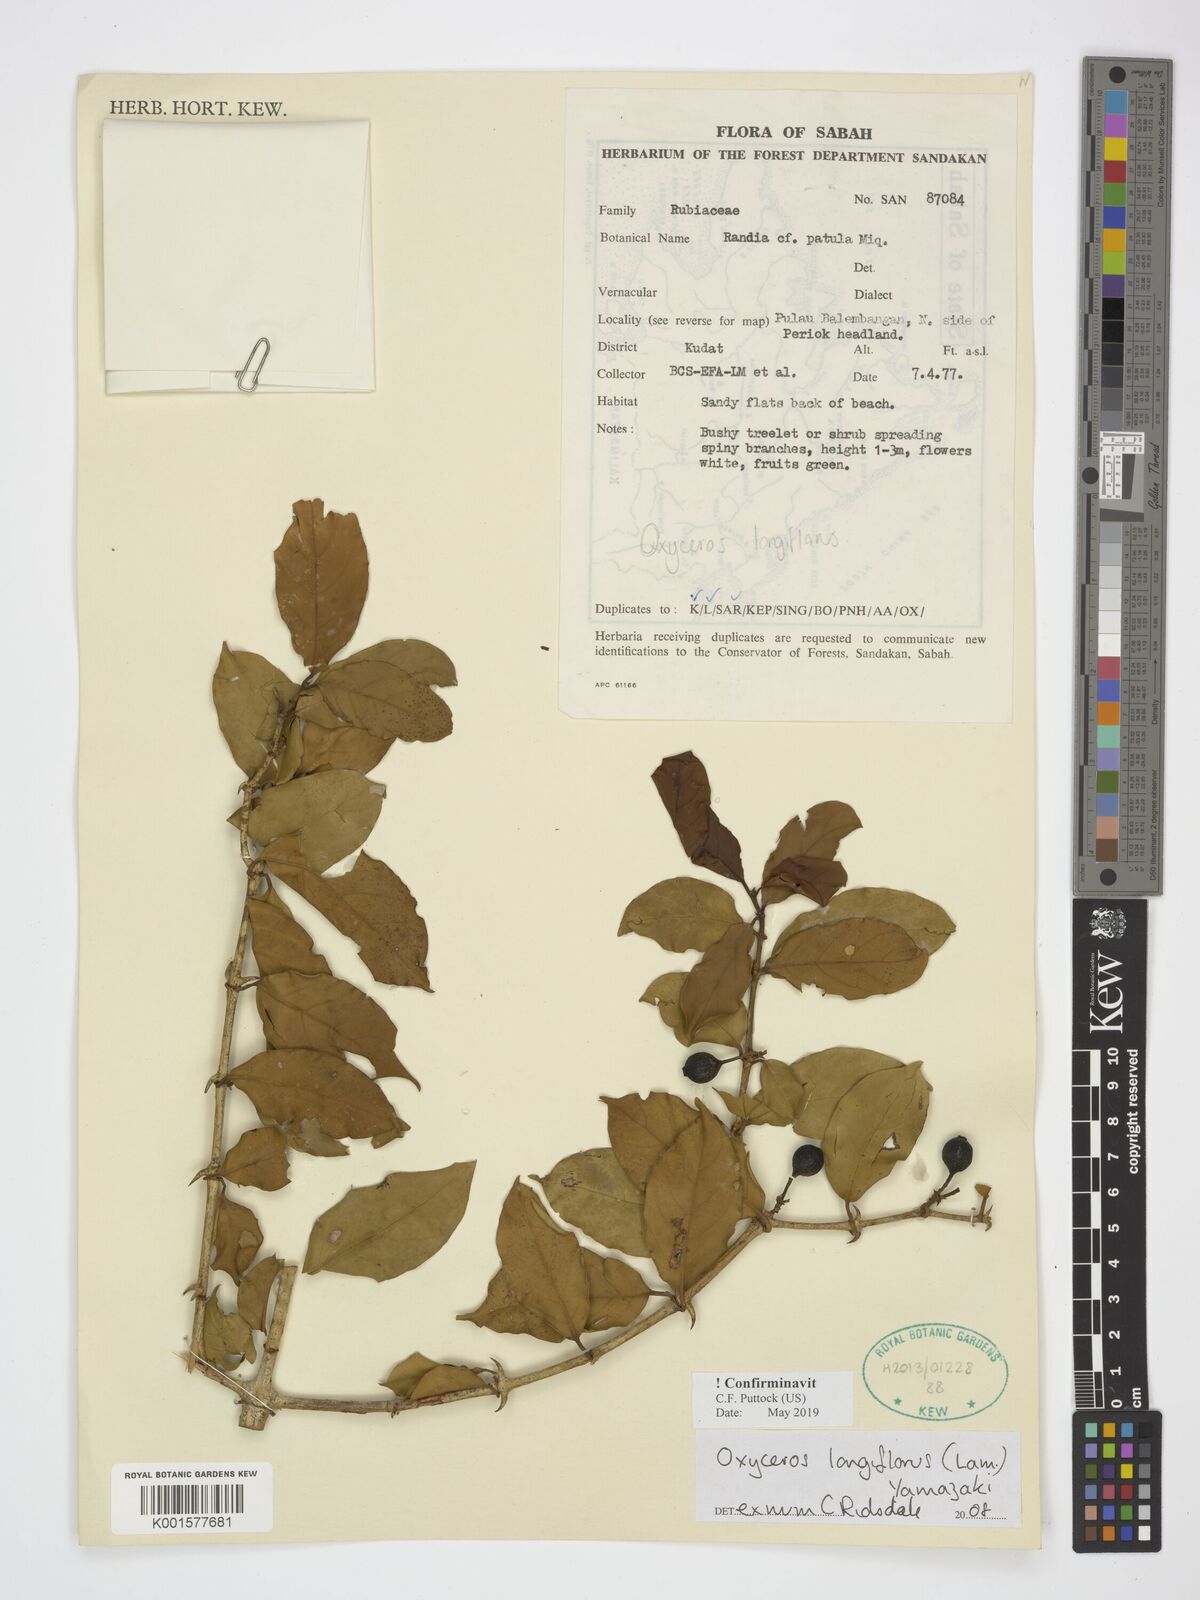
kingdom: Plantae
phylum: Tracheophyta
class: Magnoliopsida
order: Gentianales
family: Rubiaceae
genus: Oxyceros
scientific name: Oxyceros longiflorus
